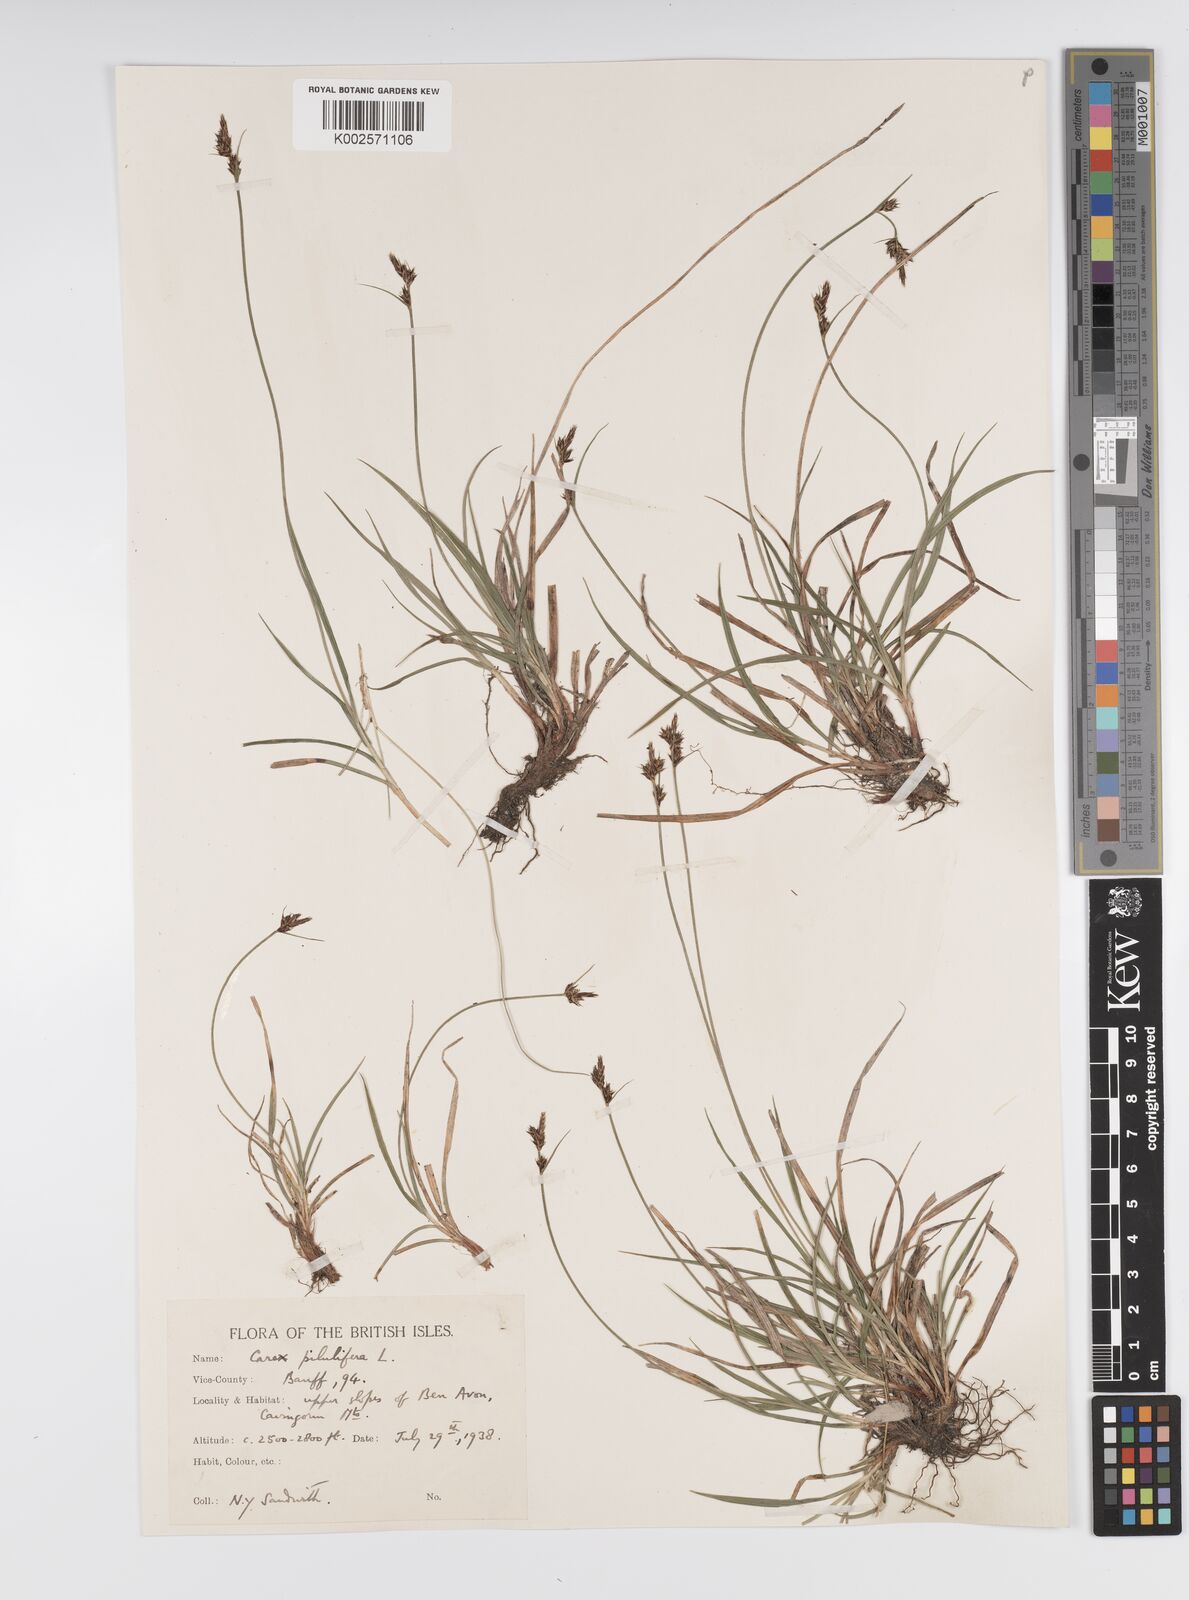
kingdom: Plantae
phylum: Tracheophyta
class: Liliopsida
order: Poales
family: Cyperaceae
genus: Carex
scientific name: Carex pilulifera
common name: Pill sedge
